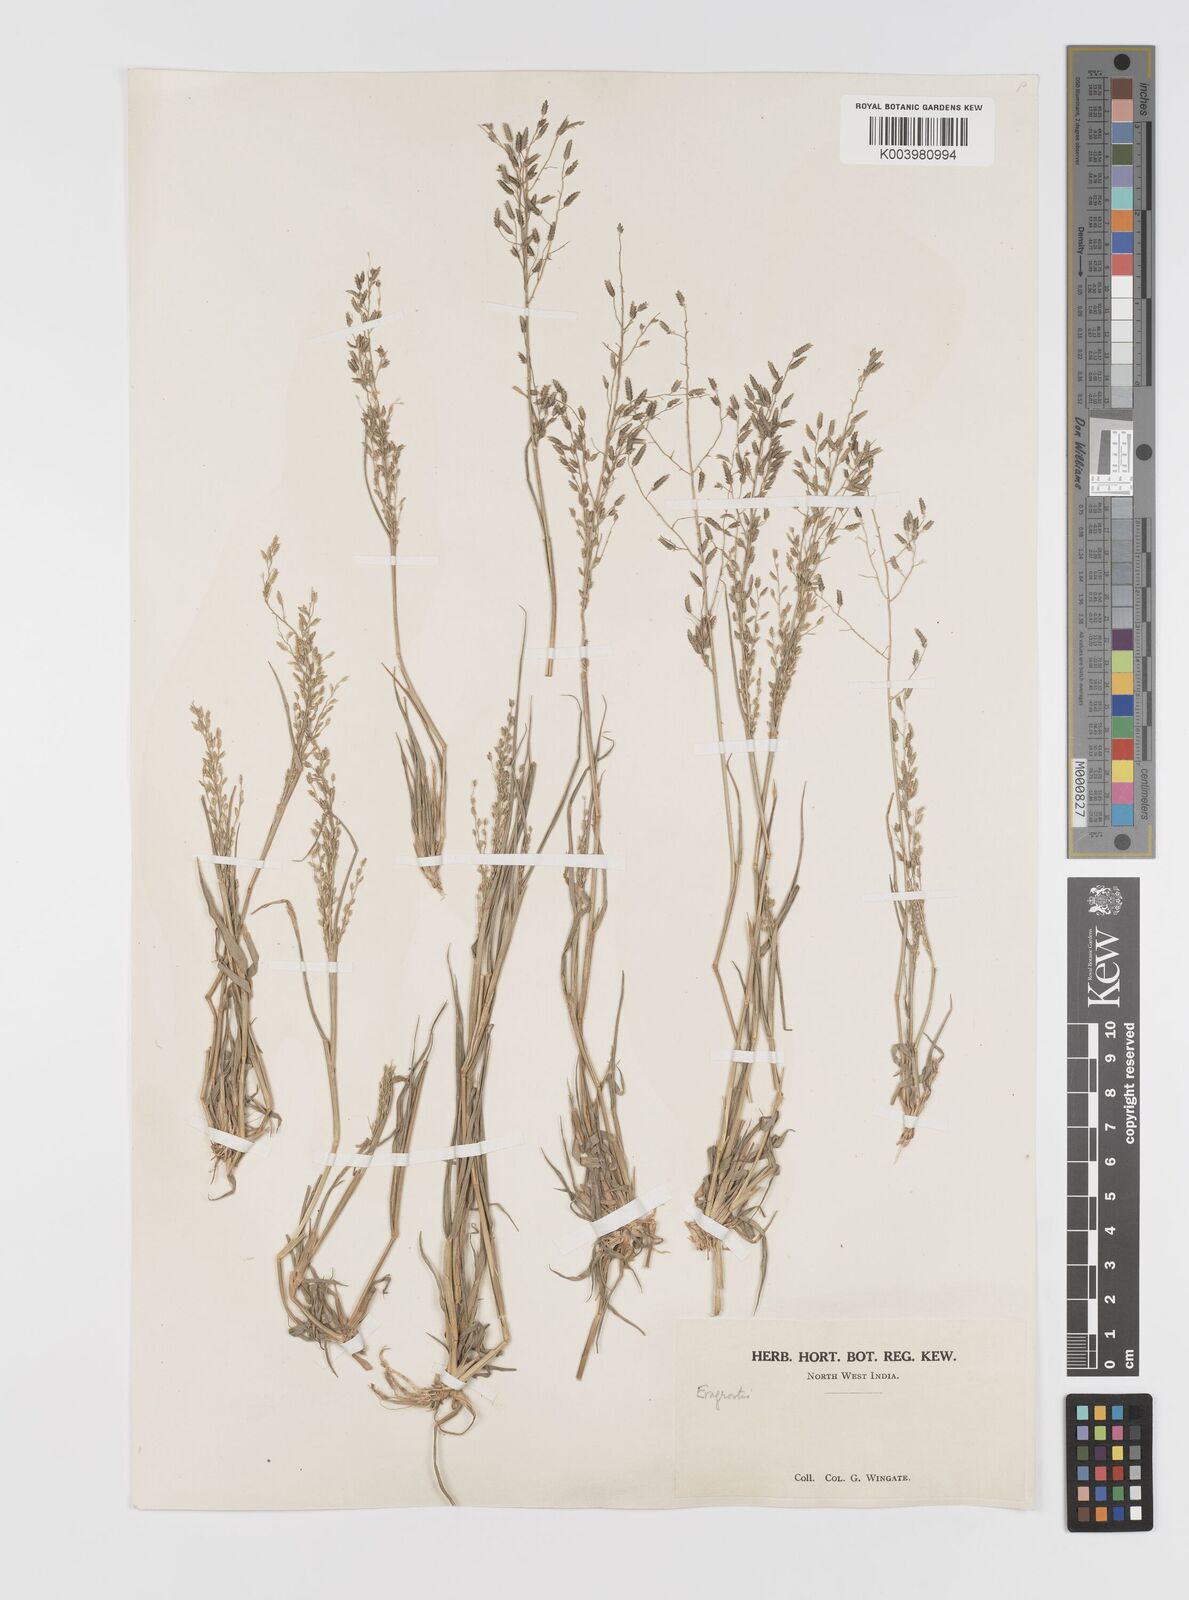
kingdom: Plantae
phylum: Tracheophyta
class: Liliopsida
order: Poales
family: Poaceae
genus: Eragrostis
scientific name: Eragrostis minor
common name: Small love-grass
